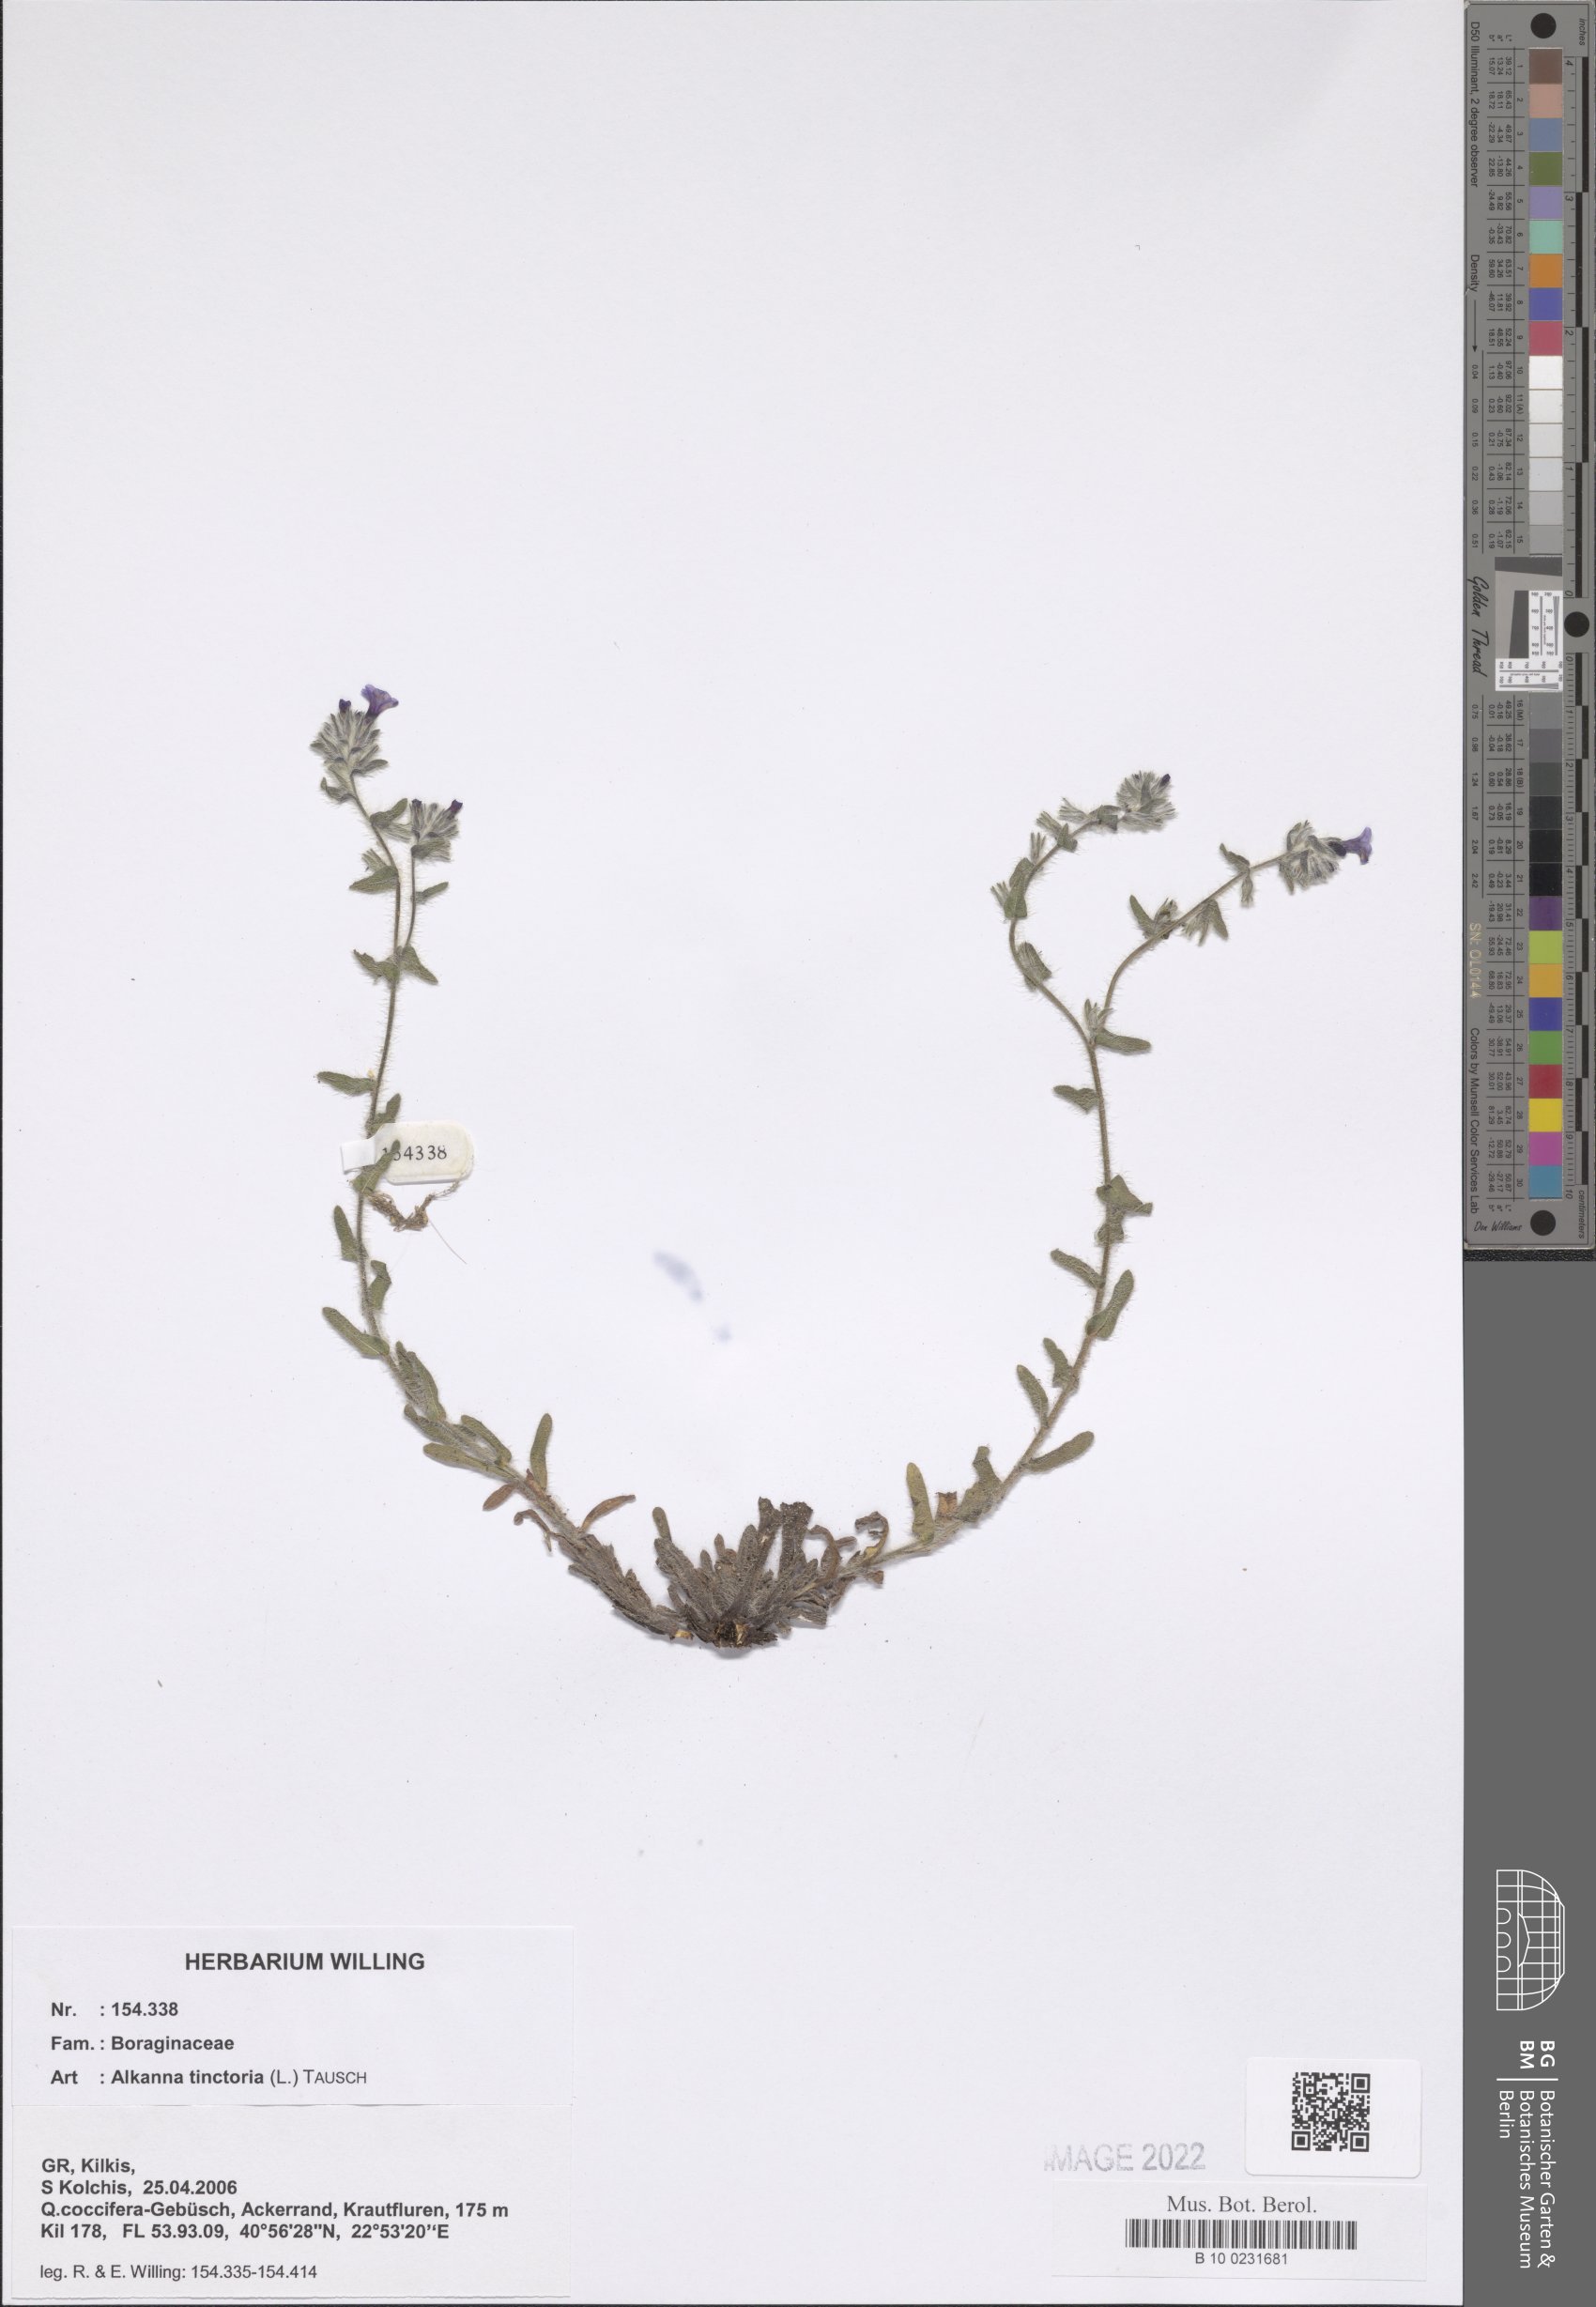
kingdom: Plantae
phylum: Tracheophyta
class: Magnoliopsida
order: Boraginales
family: Boraginaceae
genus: Alkanna
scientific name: Alkanna tinctoria
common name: Dyer's-alkanet
